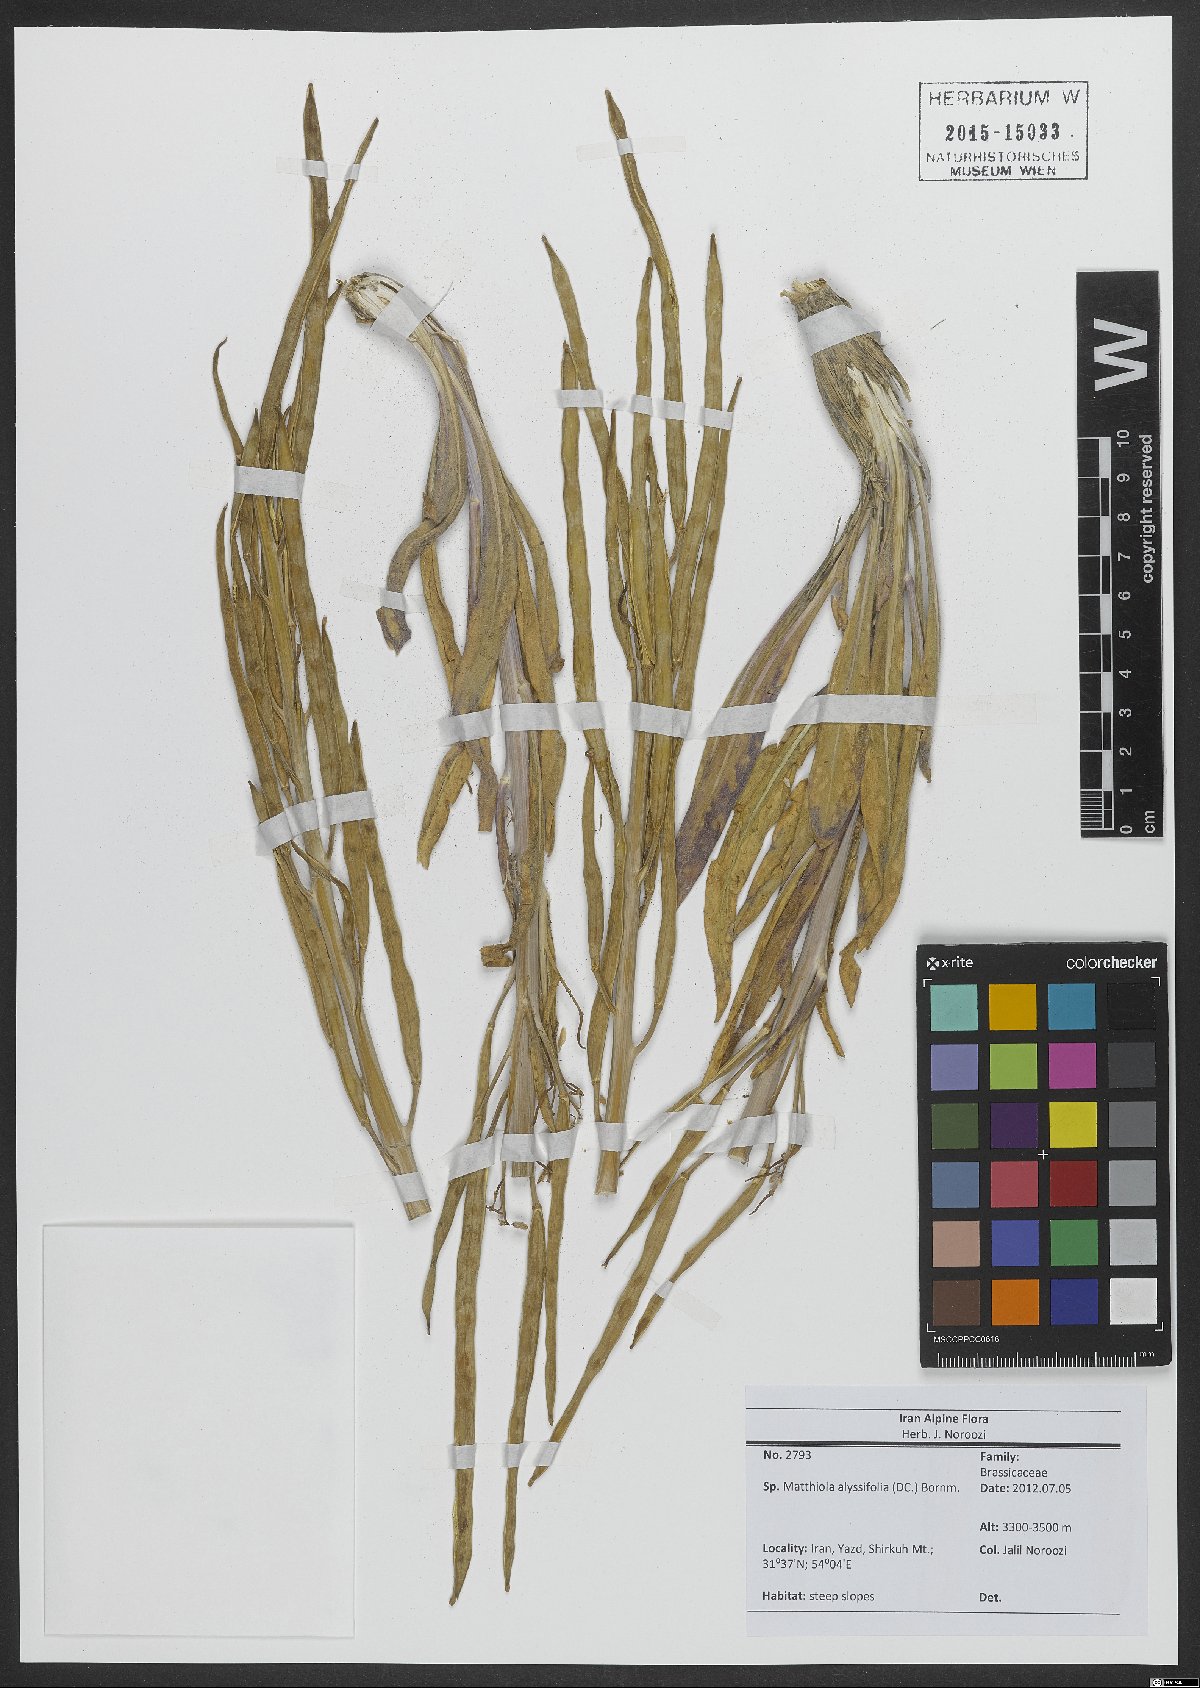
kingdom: Plantae
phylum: Tracheophyta
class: Magnoliopsida
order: Brassicales
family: Brassicaceae
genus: Matthiola
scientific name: Matthiola alyssifolia
